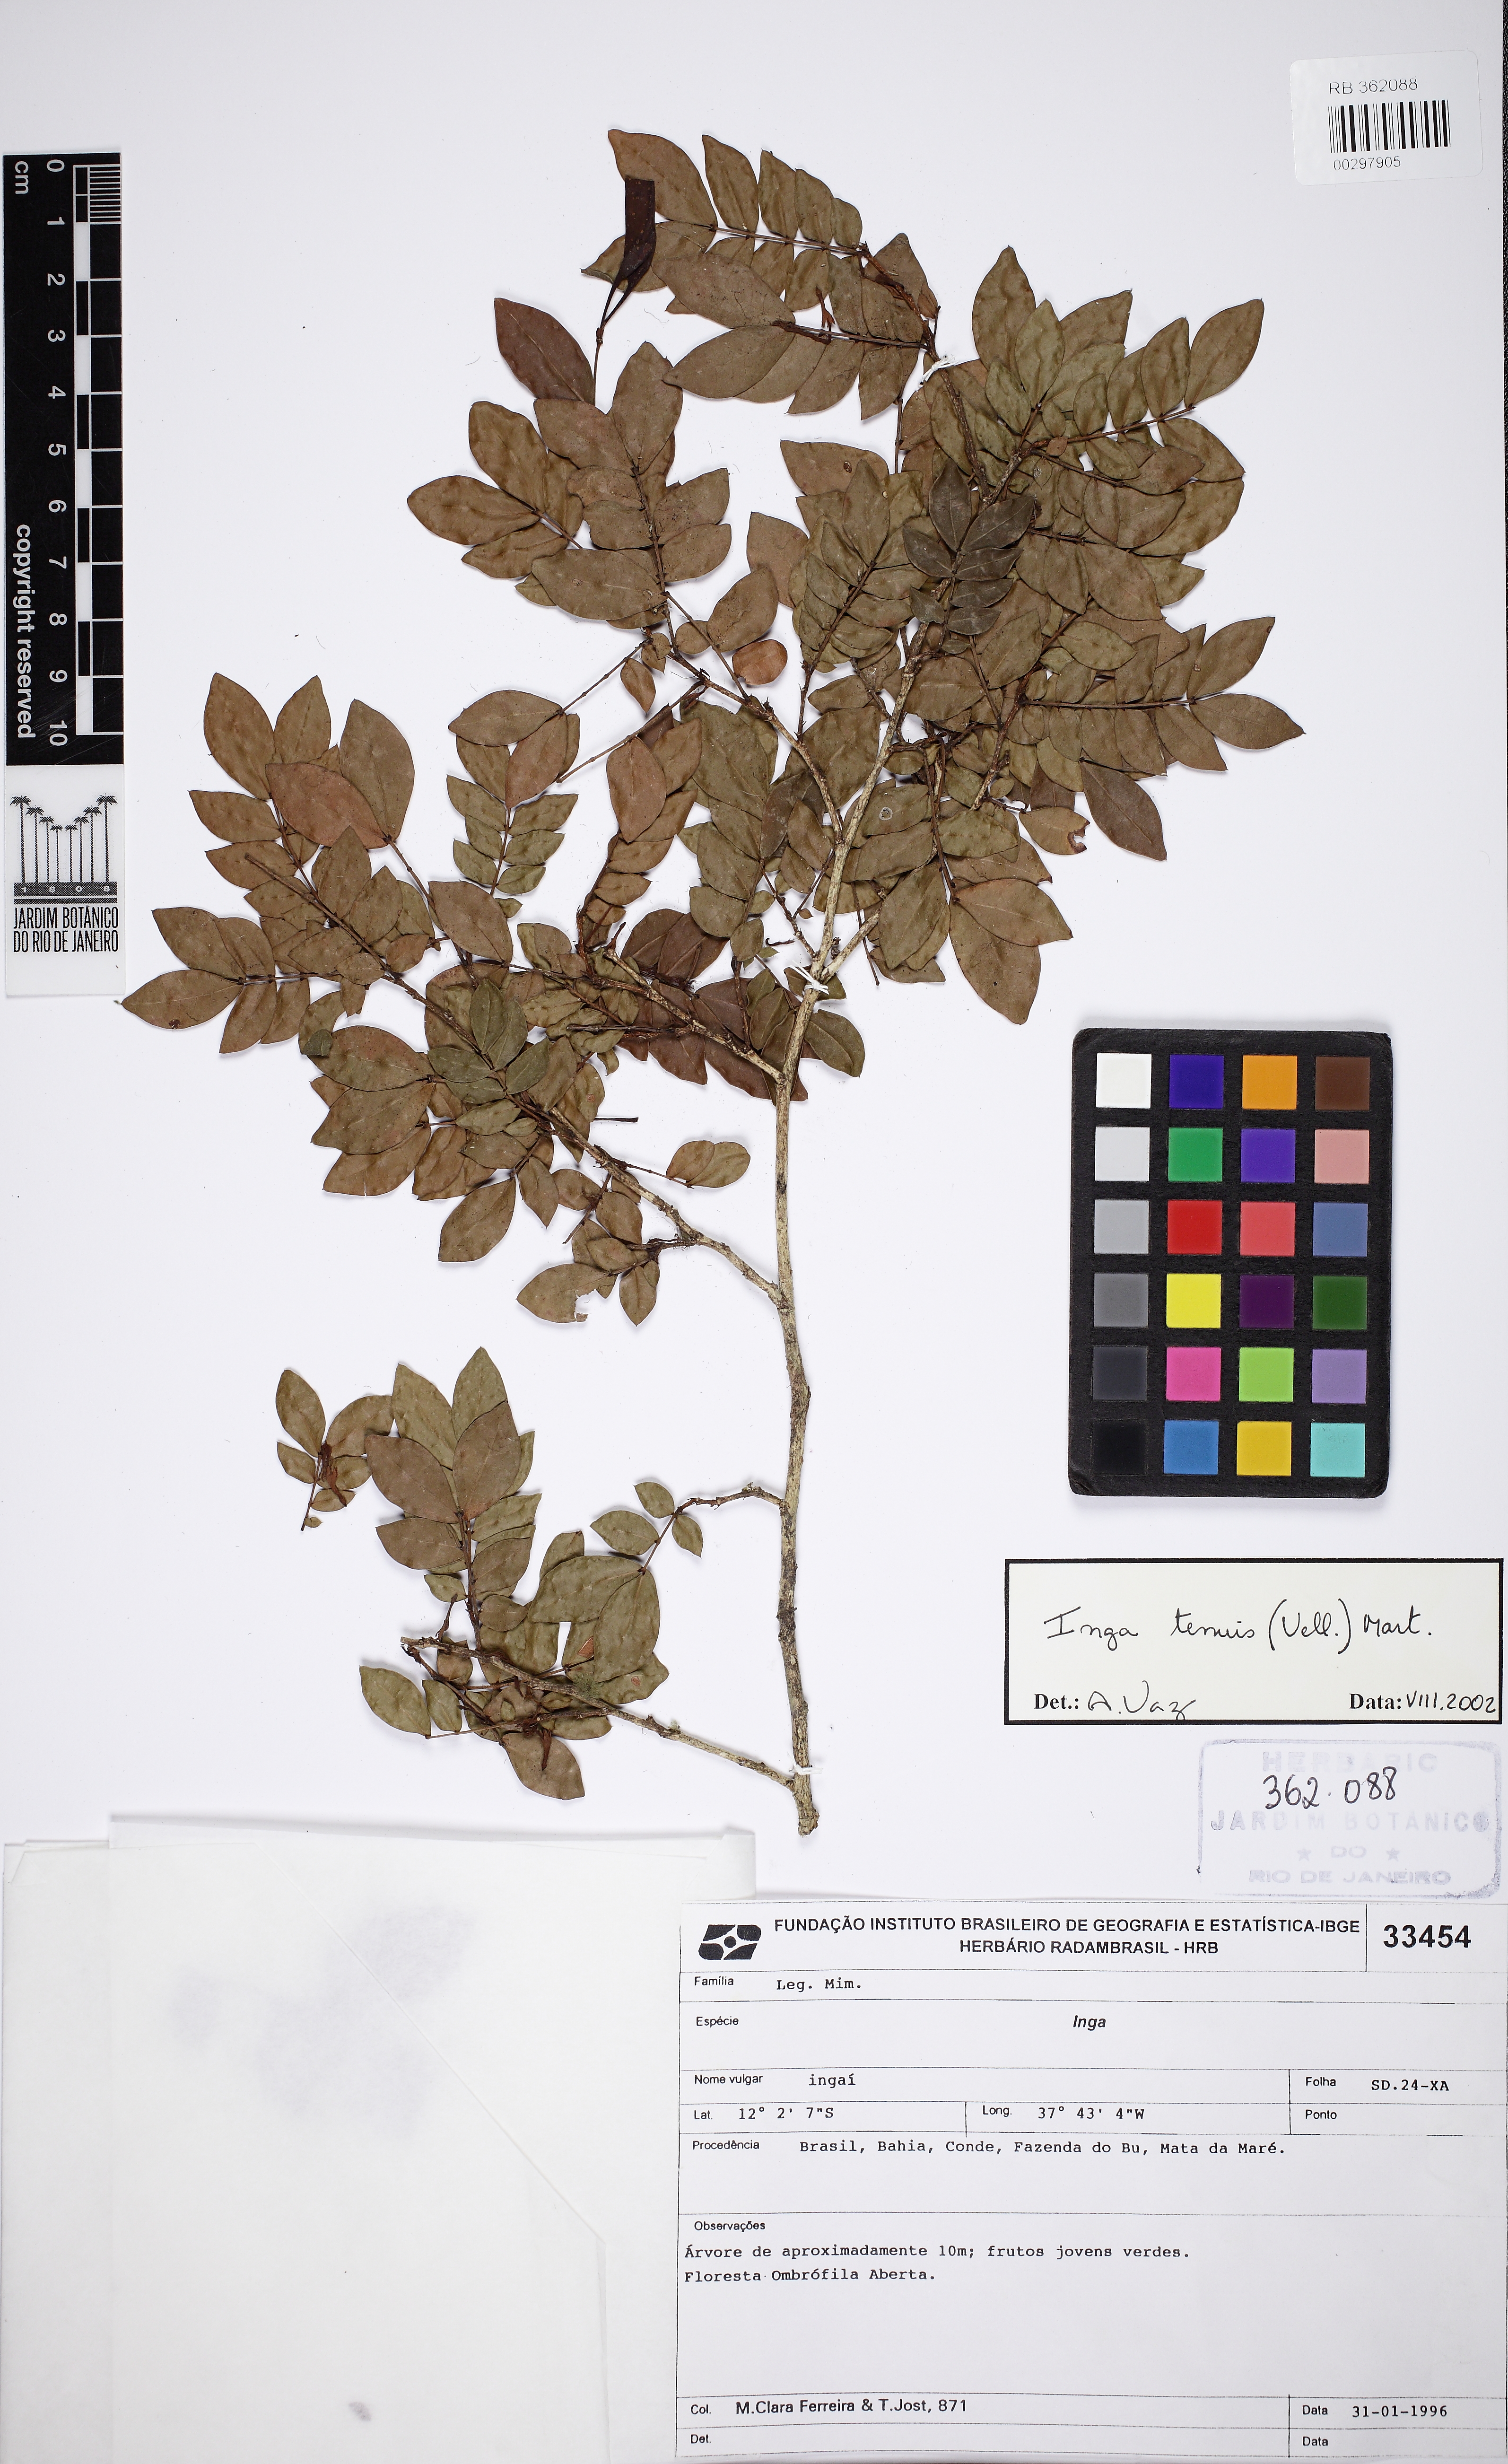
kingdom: Plantae
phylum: Tracheophyta
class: Magnoliopsida
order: Fabales
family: Fabaceae
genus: Inga
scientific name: Inga tenuis
